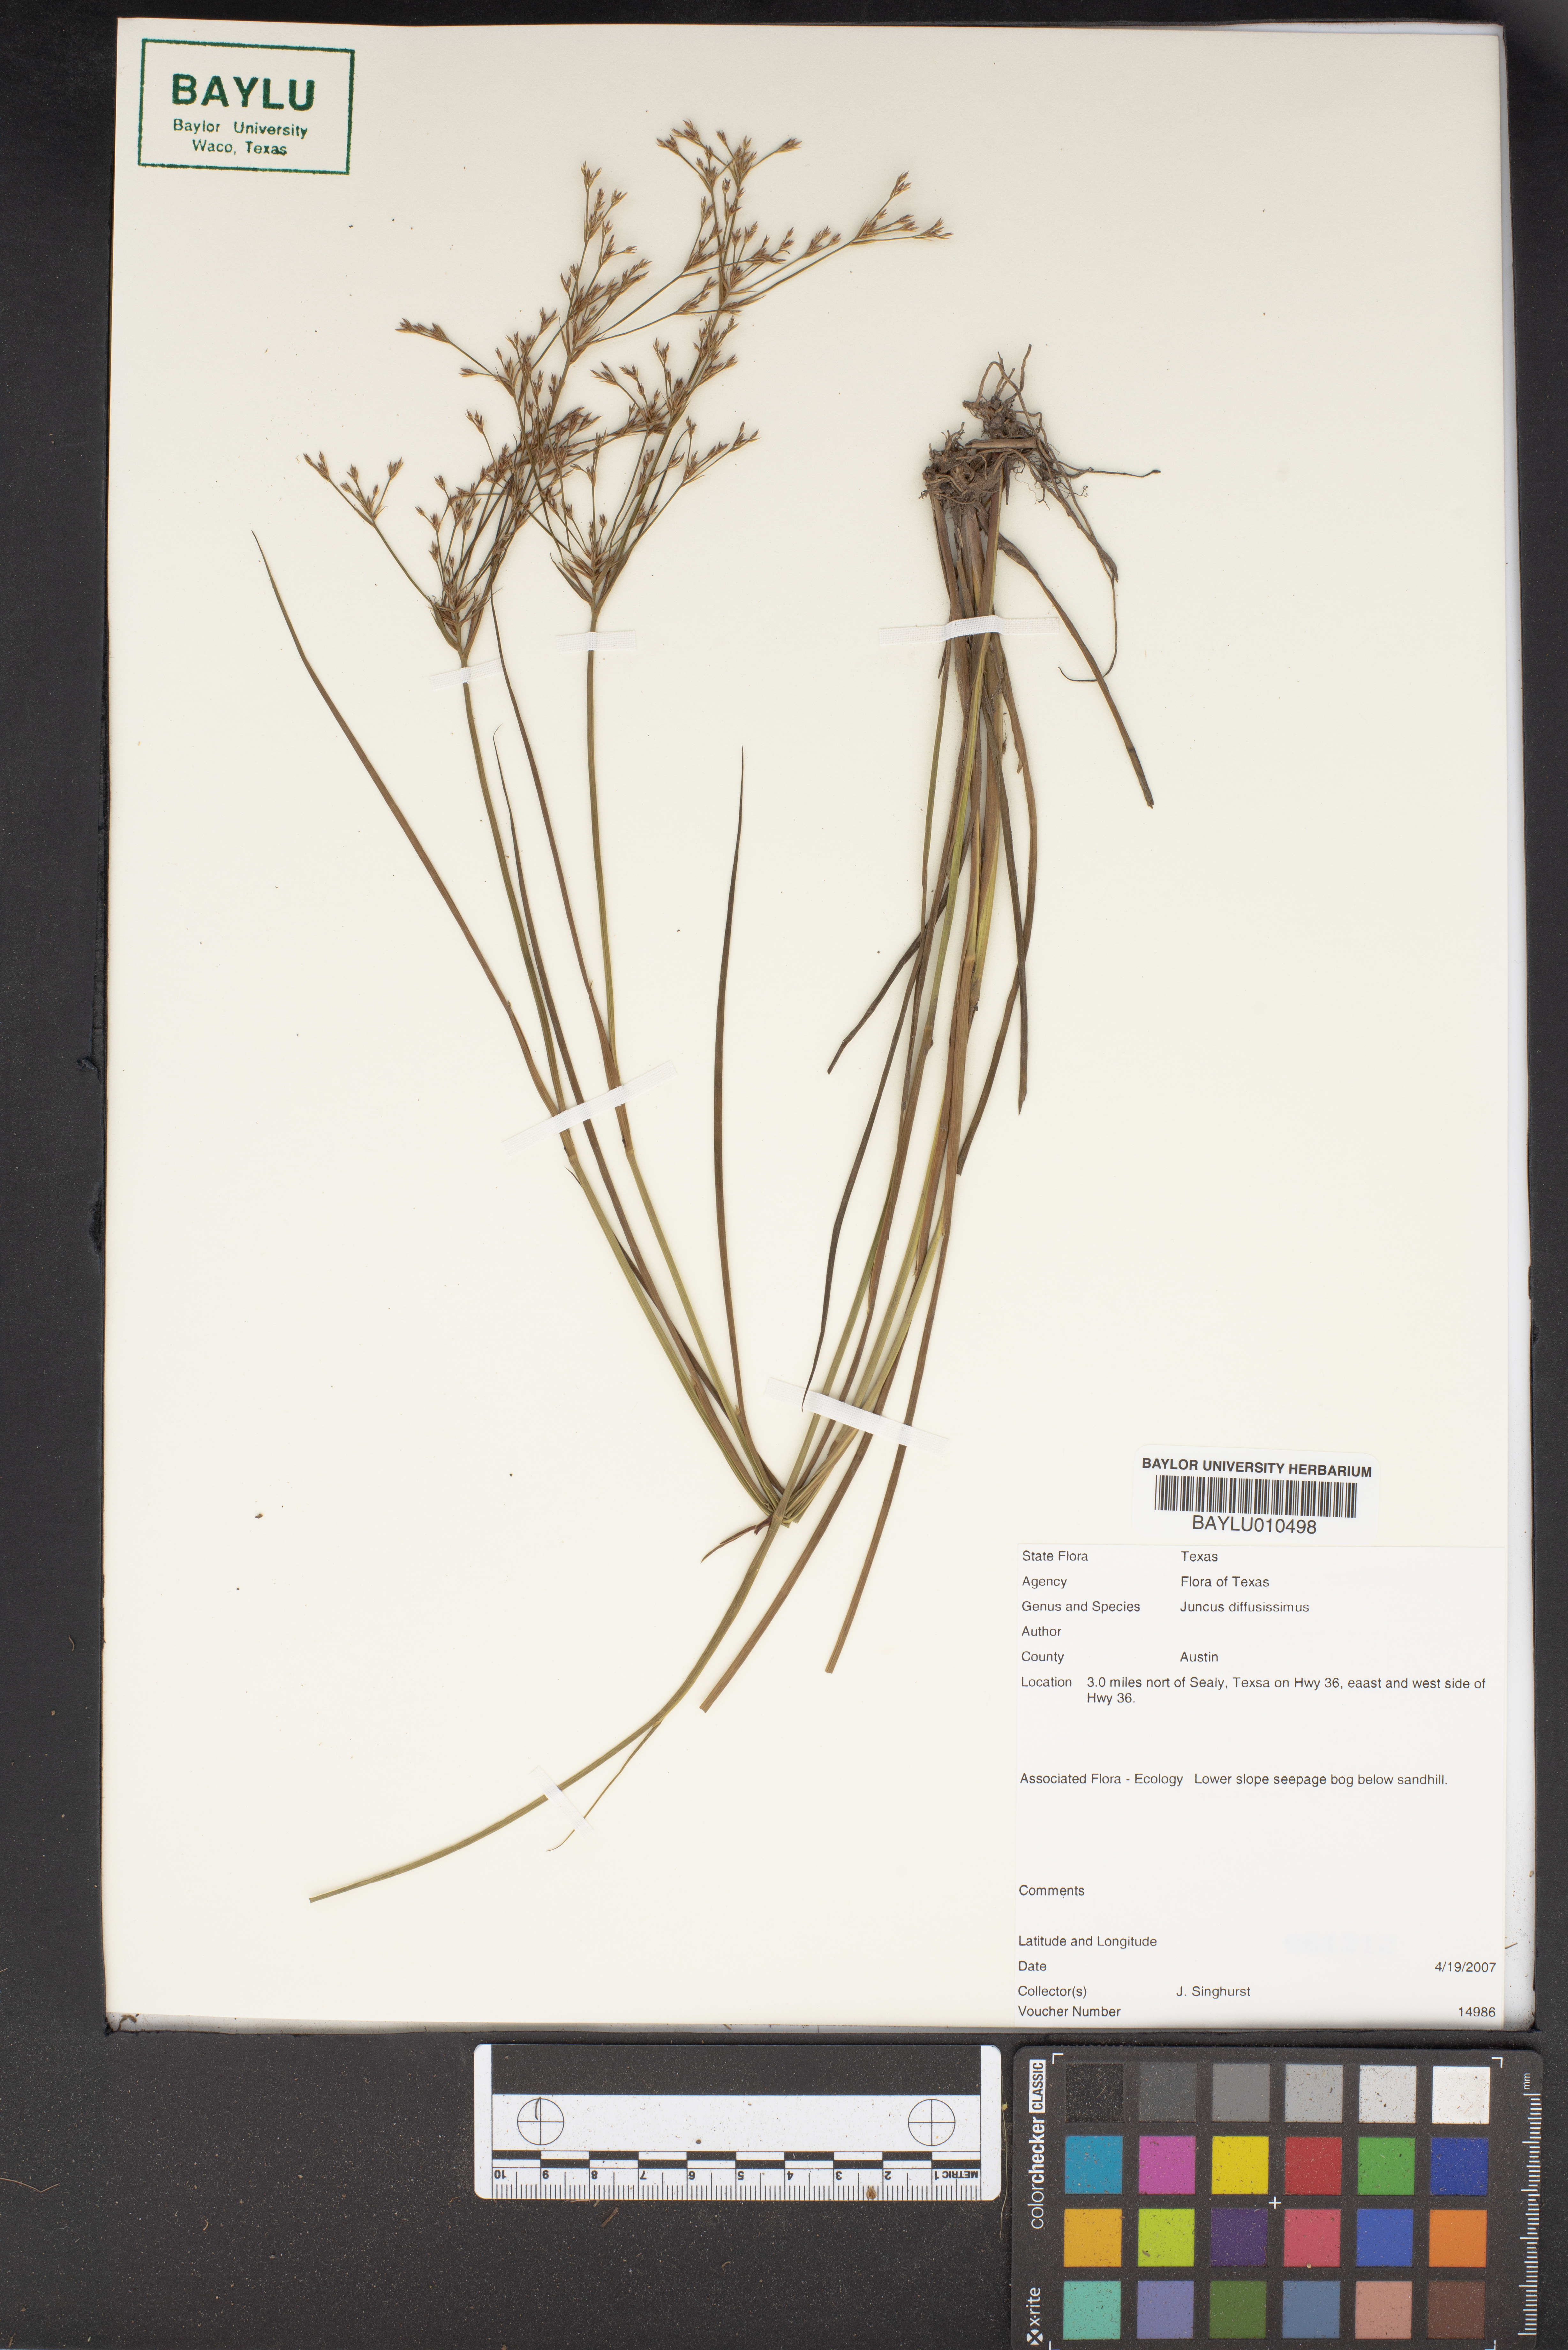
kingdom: Plantae
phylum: Tracheophyta
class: Liliopsida
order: Poales
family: Juncaceae
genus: Juncus
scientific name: Juncus diffusissimus
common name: Slimpod rush
